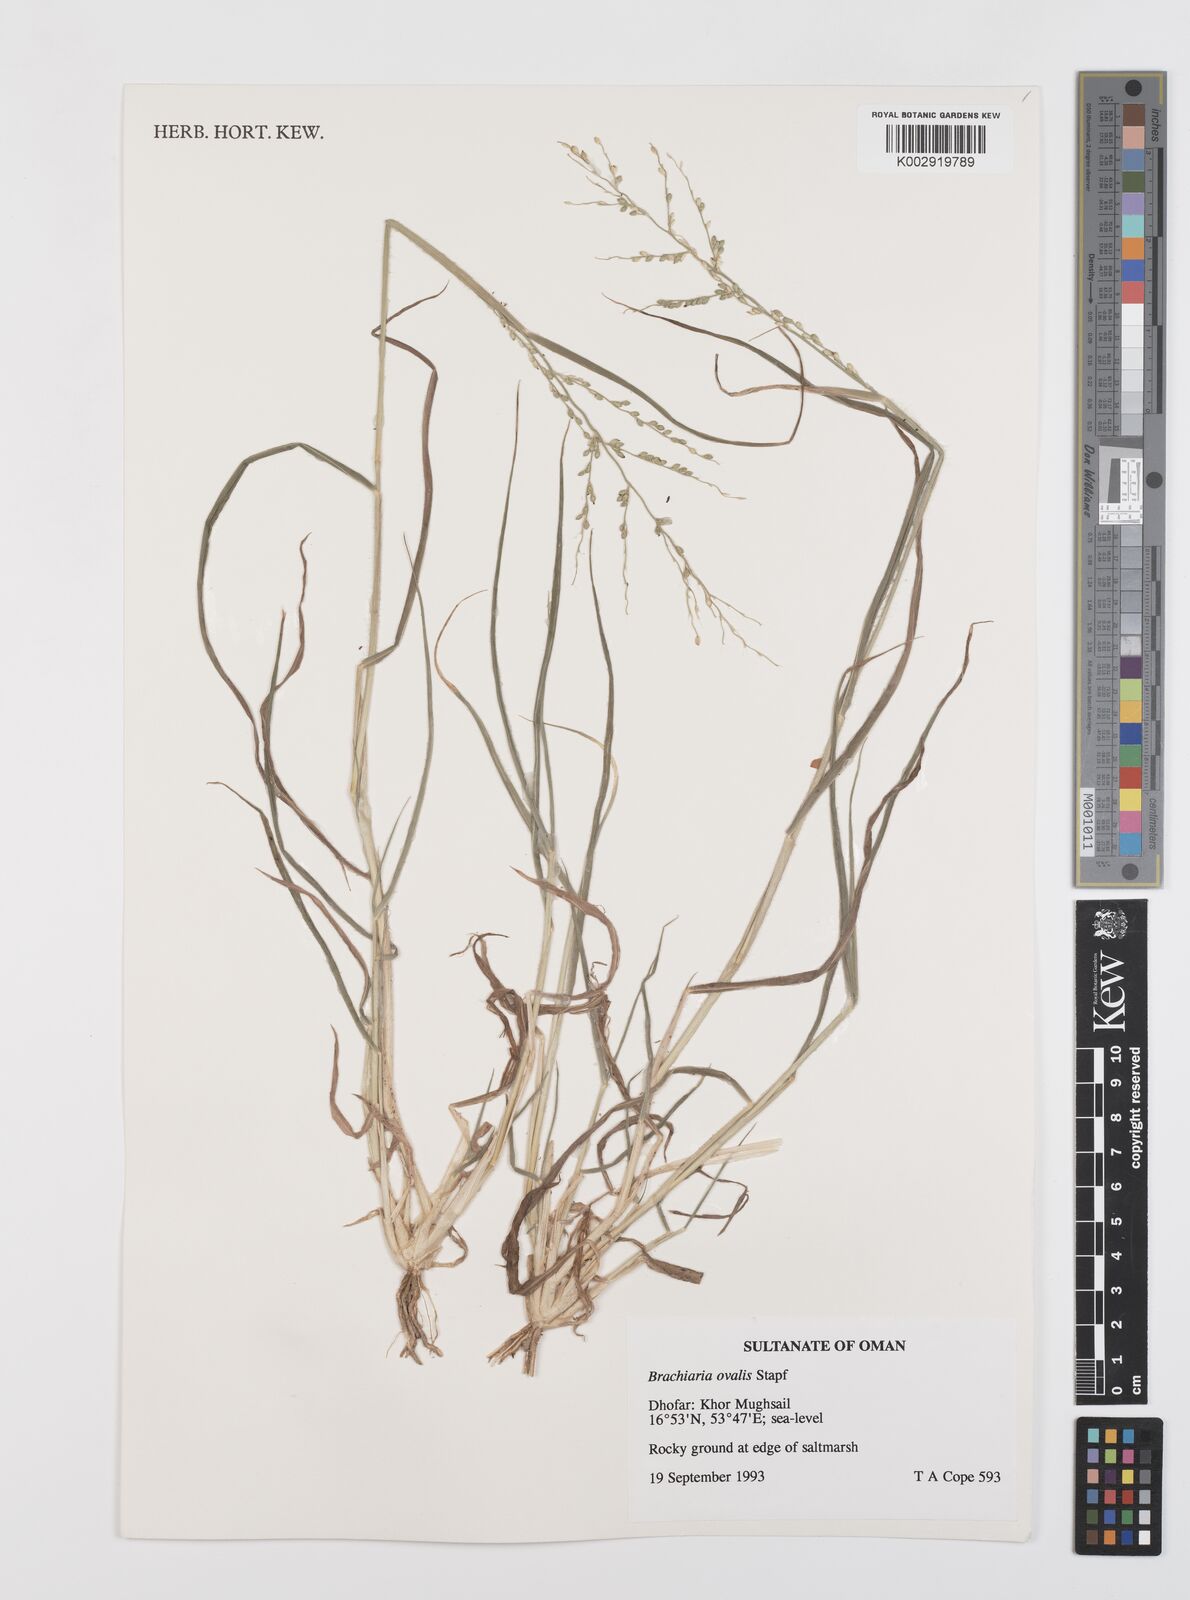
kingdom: Plantae
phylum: Tracheophyta
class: Liliopsida
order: Poales
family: Poaceae
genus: Urochloa
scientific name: Urochloa ovalis
